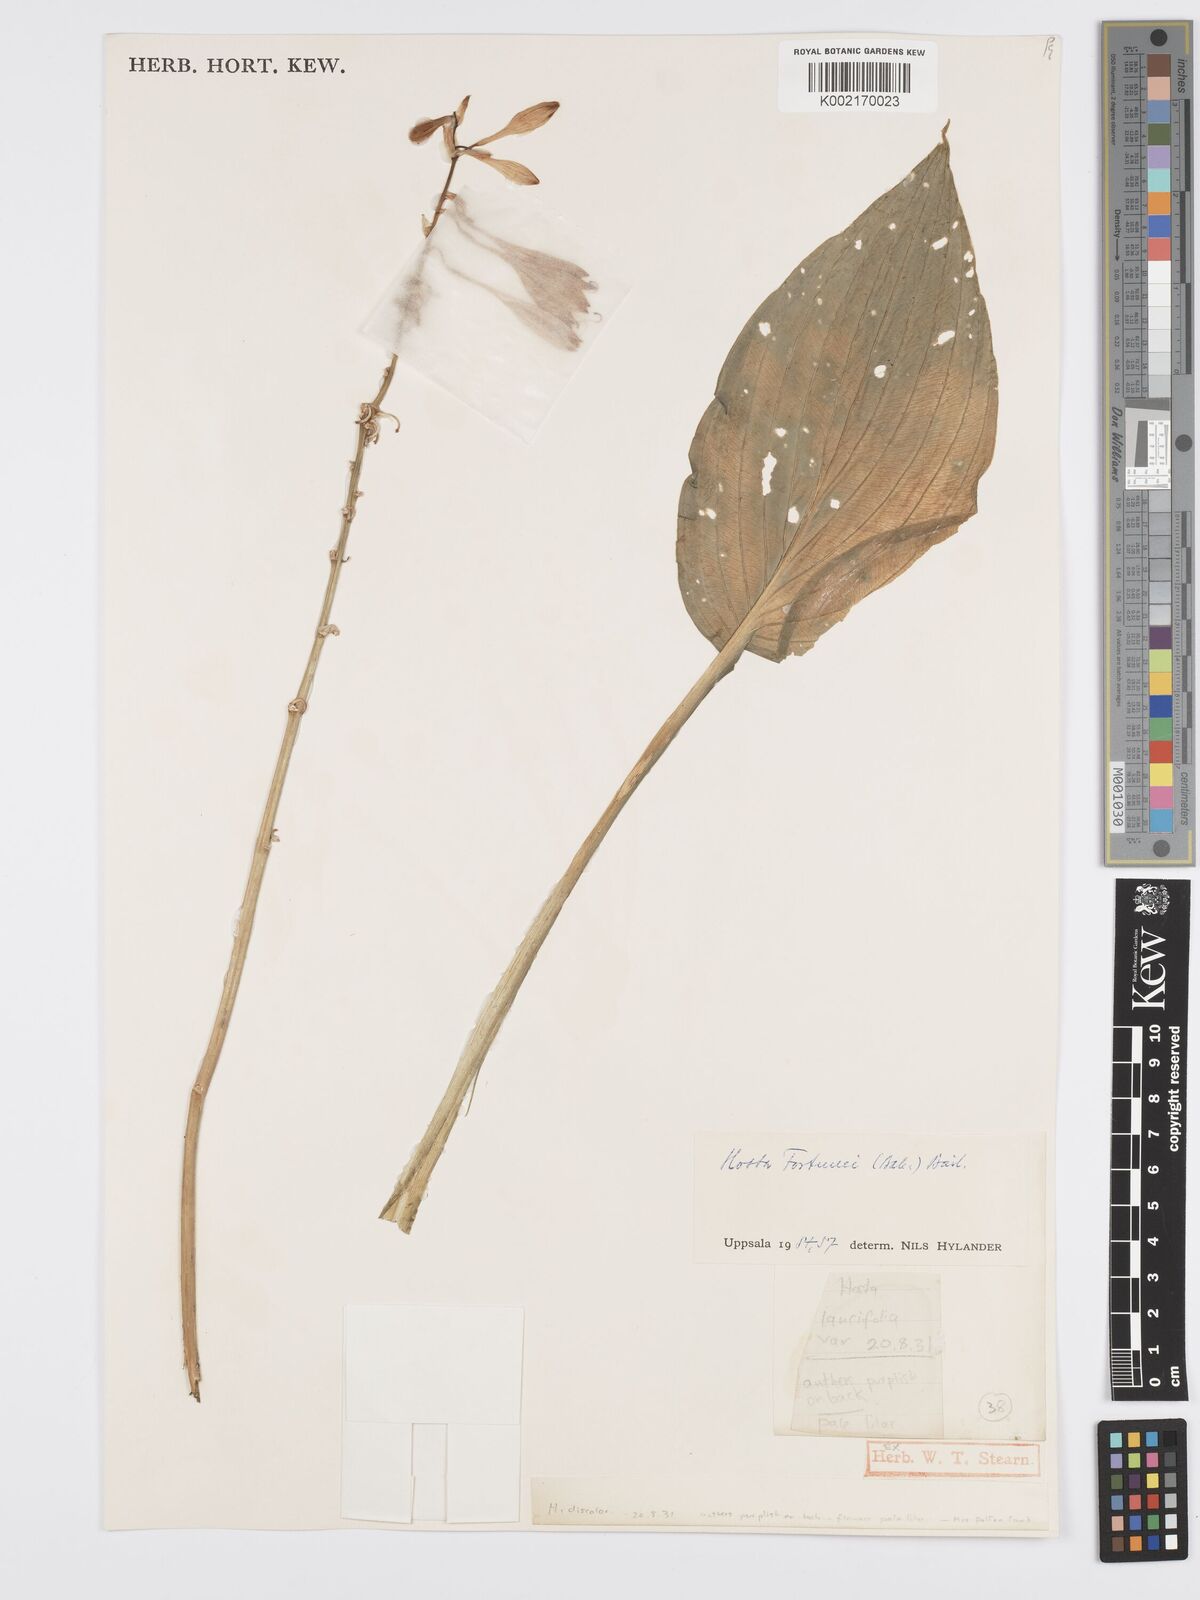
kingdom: Plantae
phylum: Tracheophyta
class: Liliopsida
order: Asparagales
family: Asparagaceae
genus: Hosta
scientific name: Hosta sieboldiana
